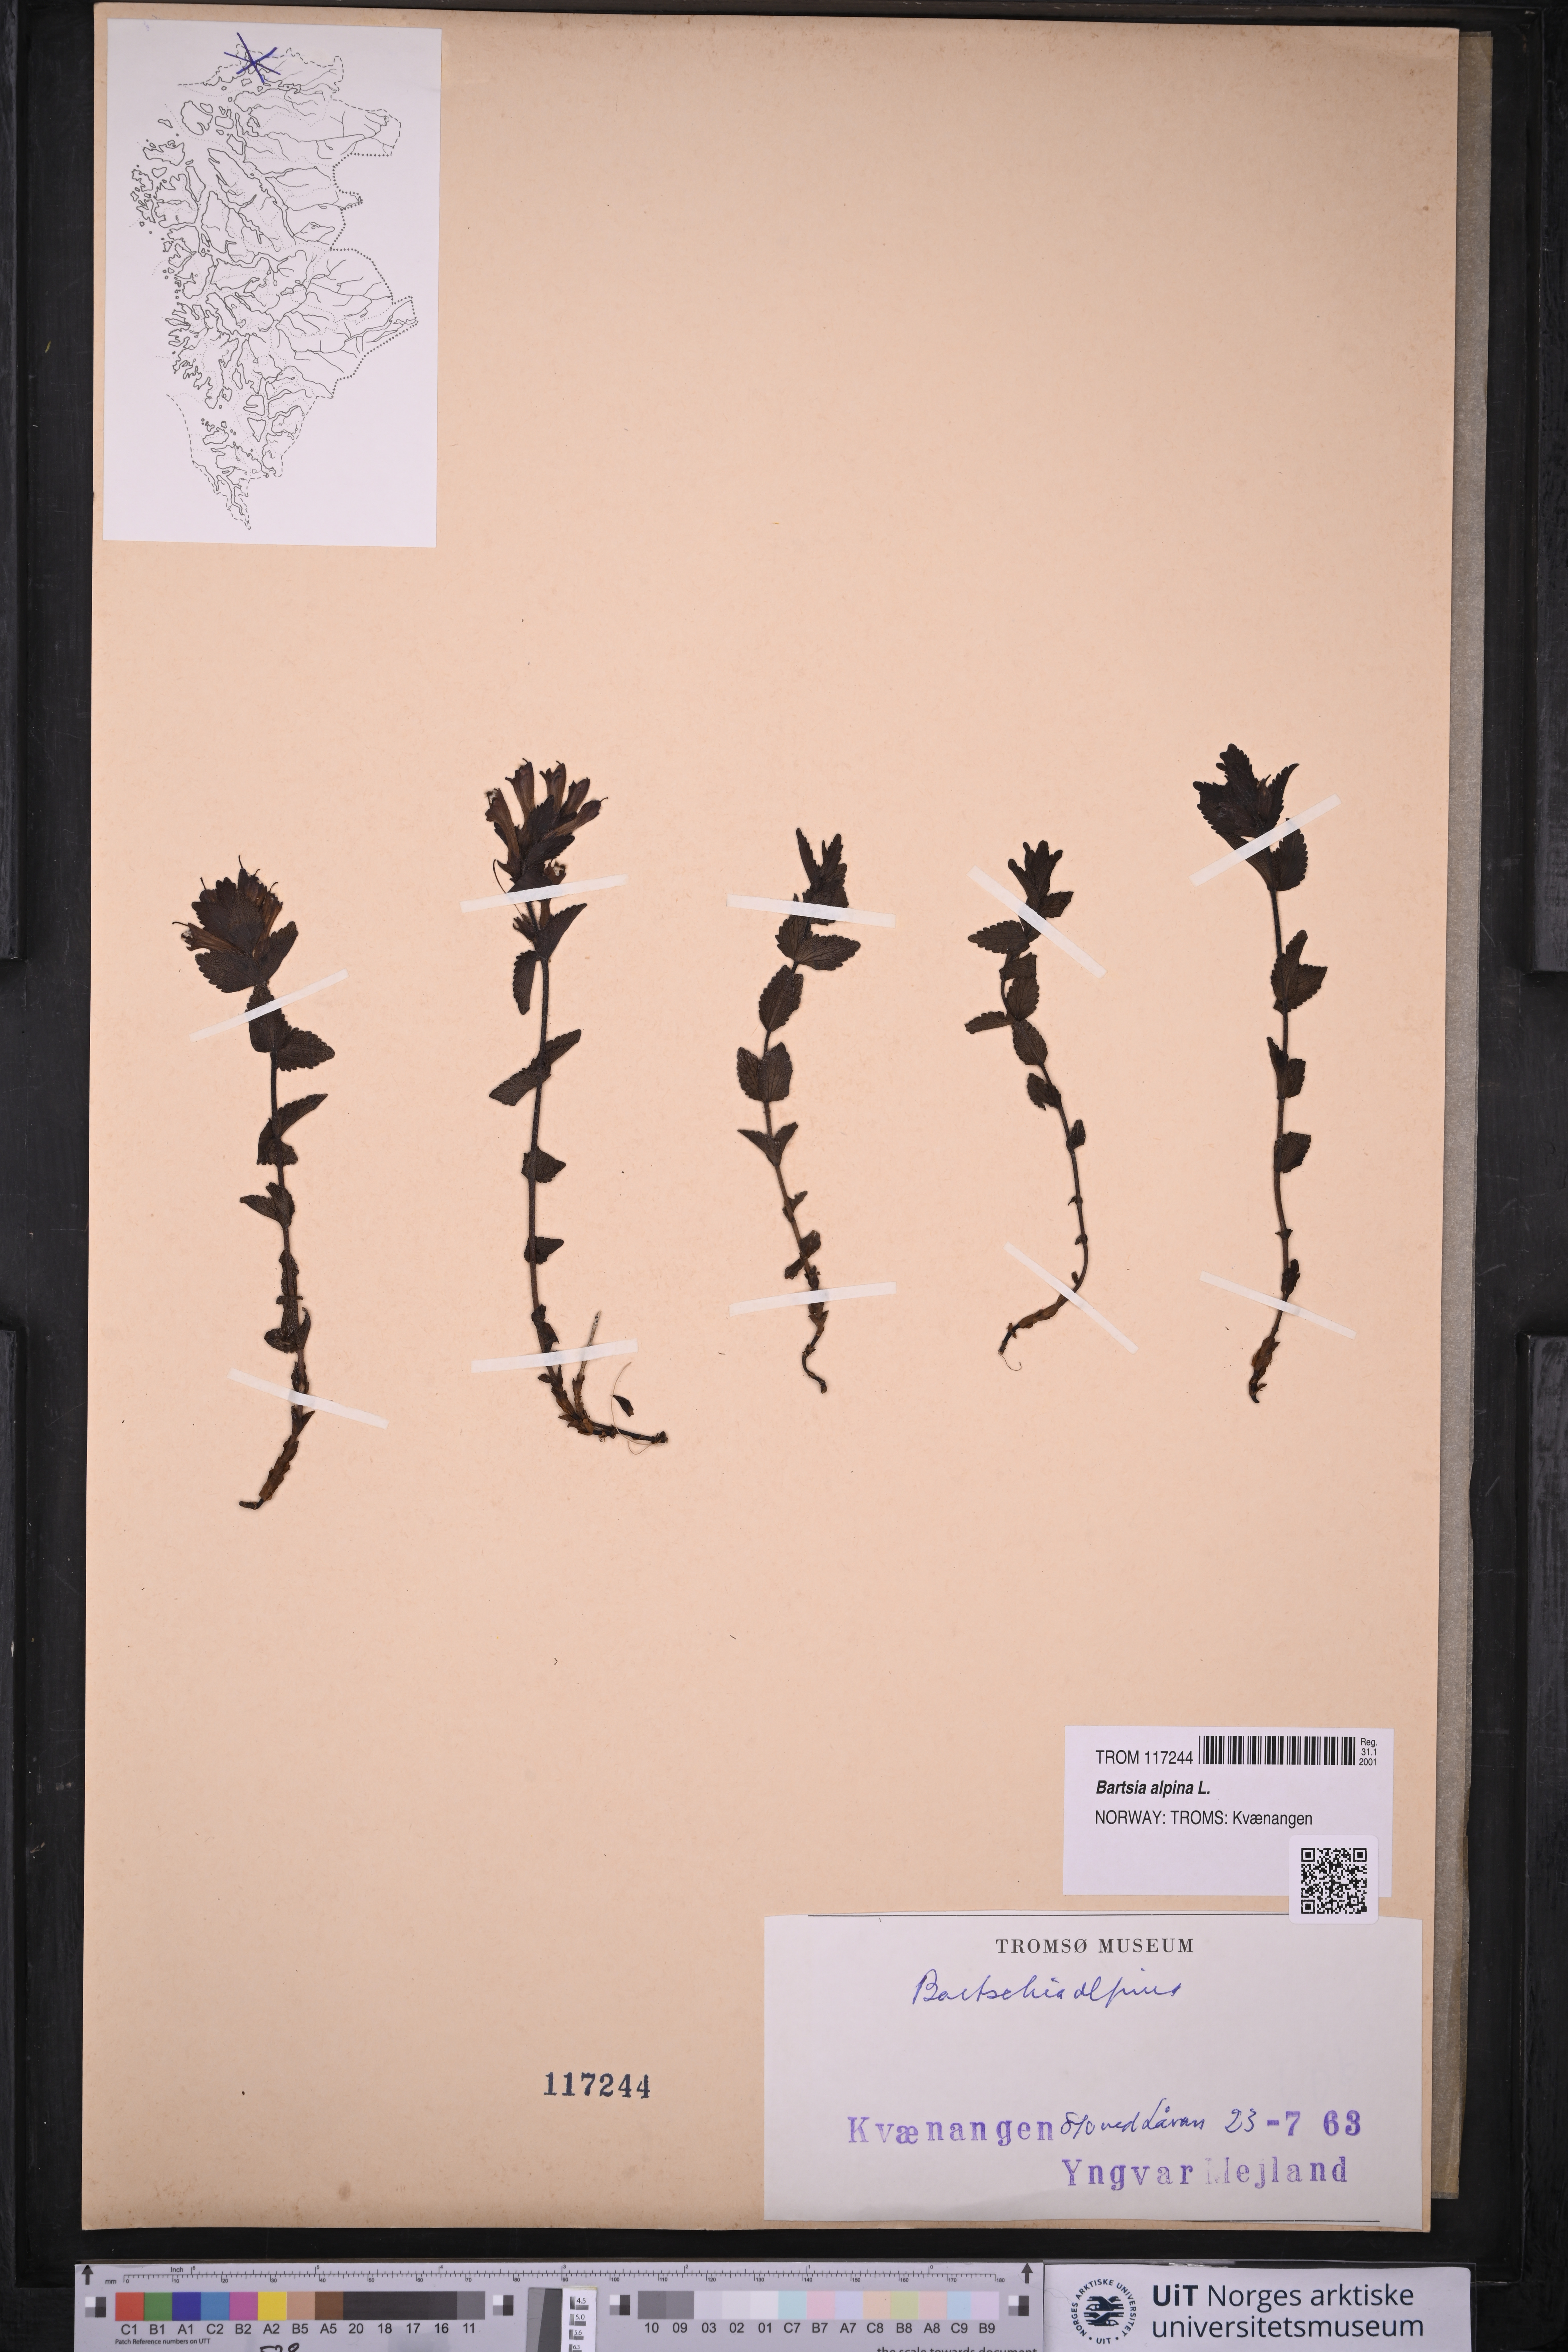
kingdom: Plantae
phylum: Tracheophyta
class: Magnoliopsida
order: Lamiales
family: Orobanchaceae
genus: Bartsia
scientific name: Bartsia alpina
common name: Alpine bartsia
